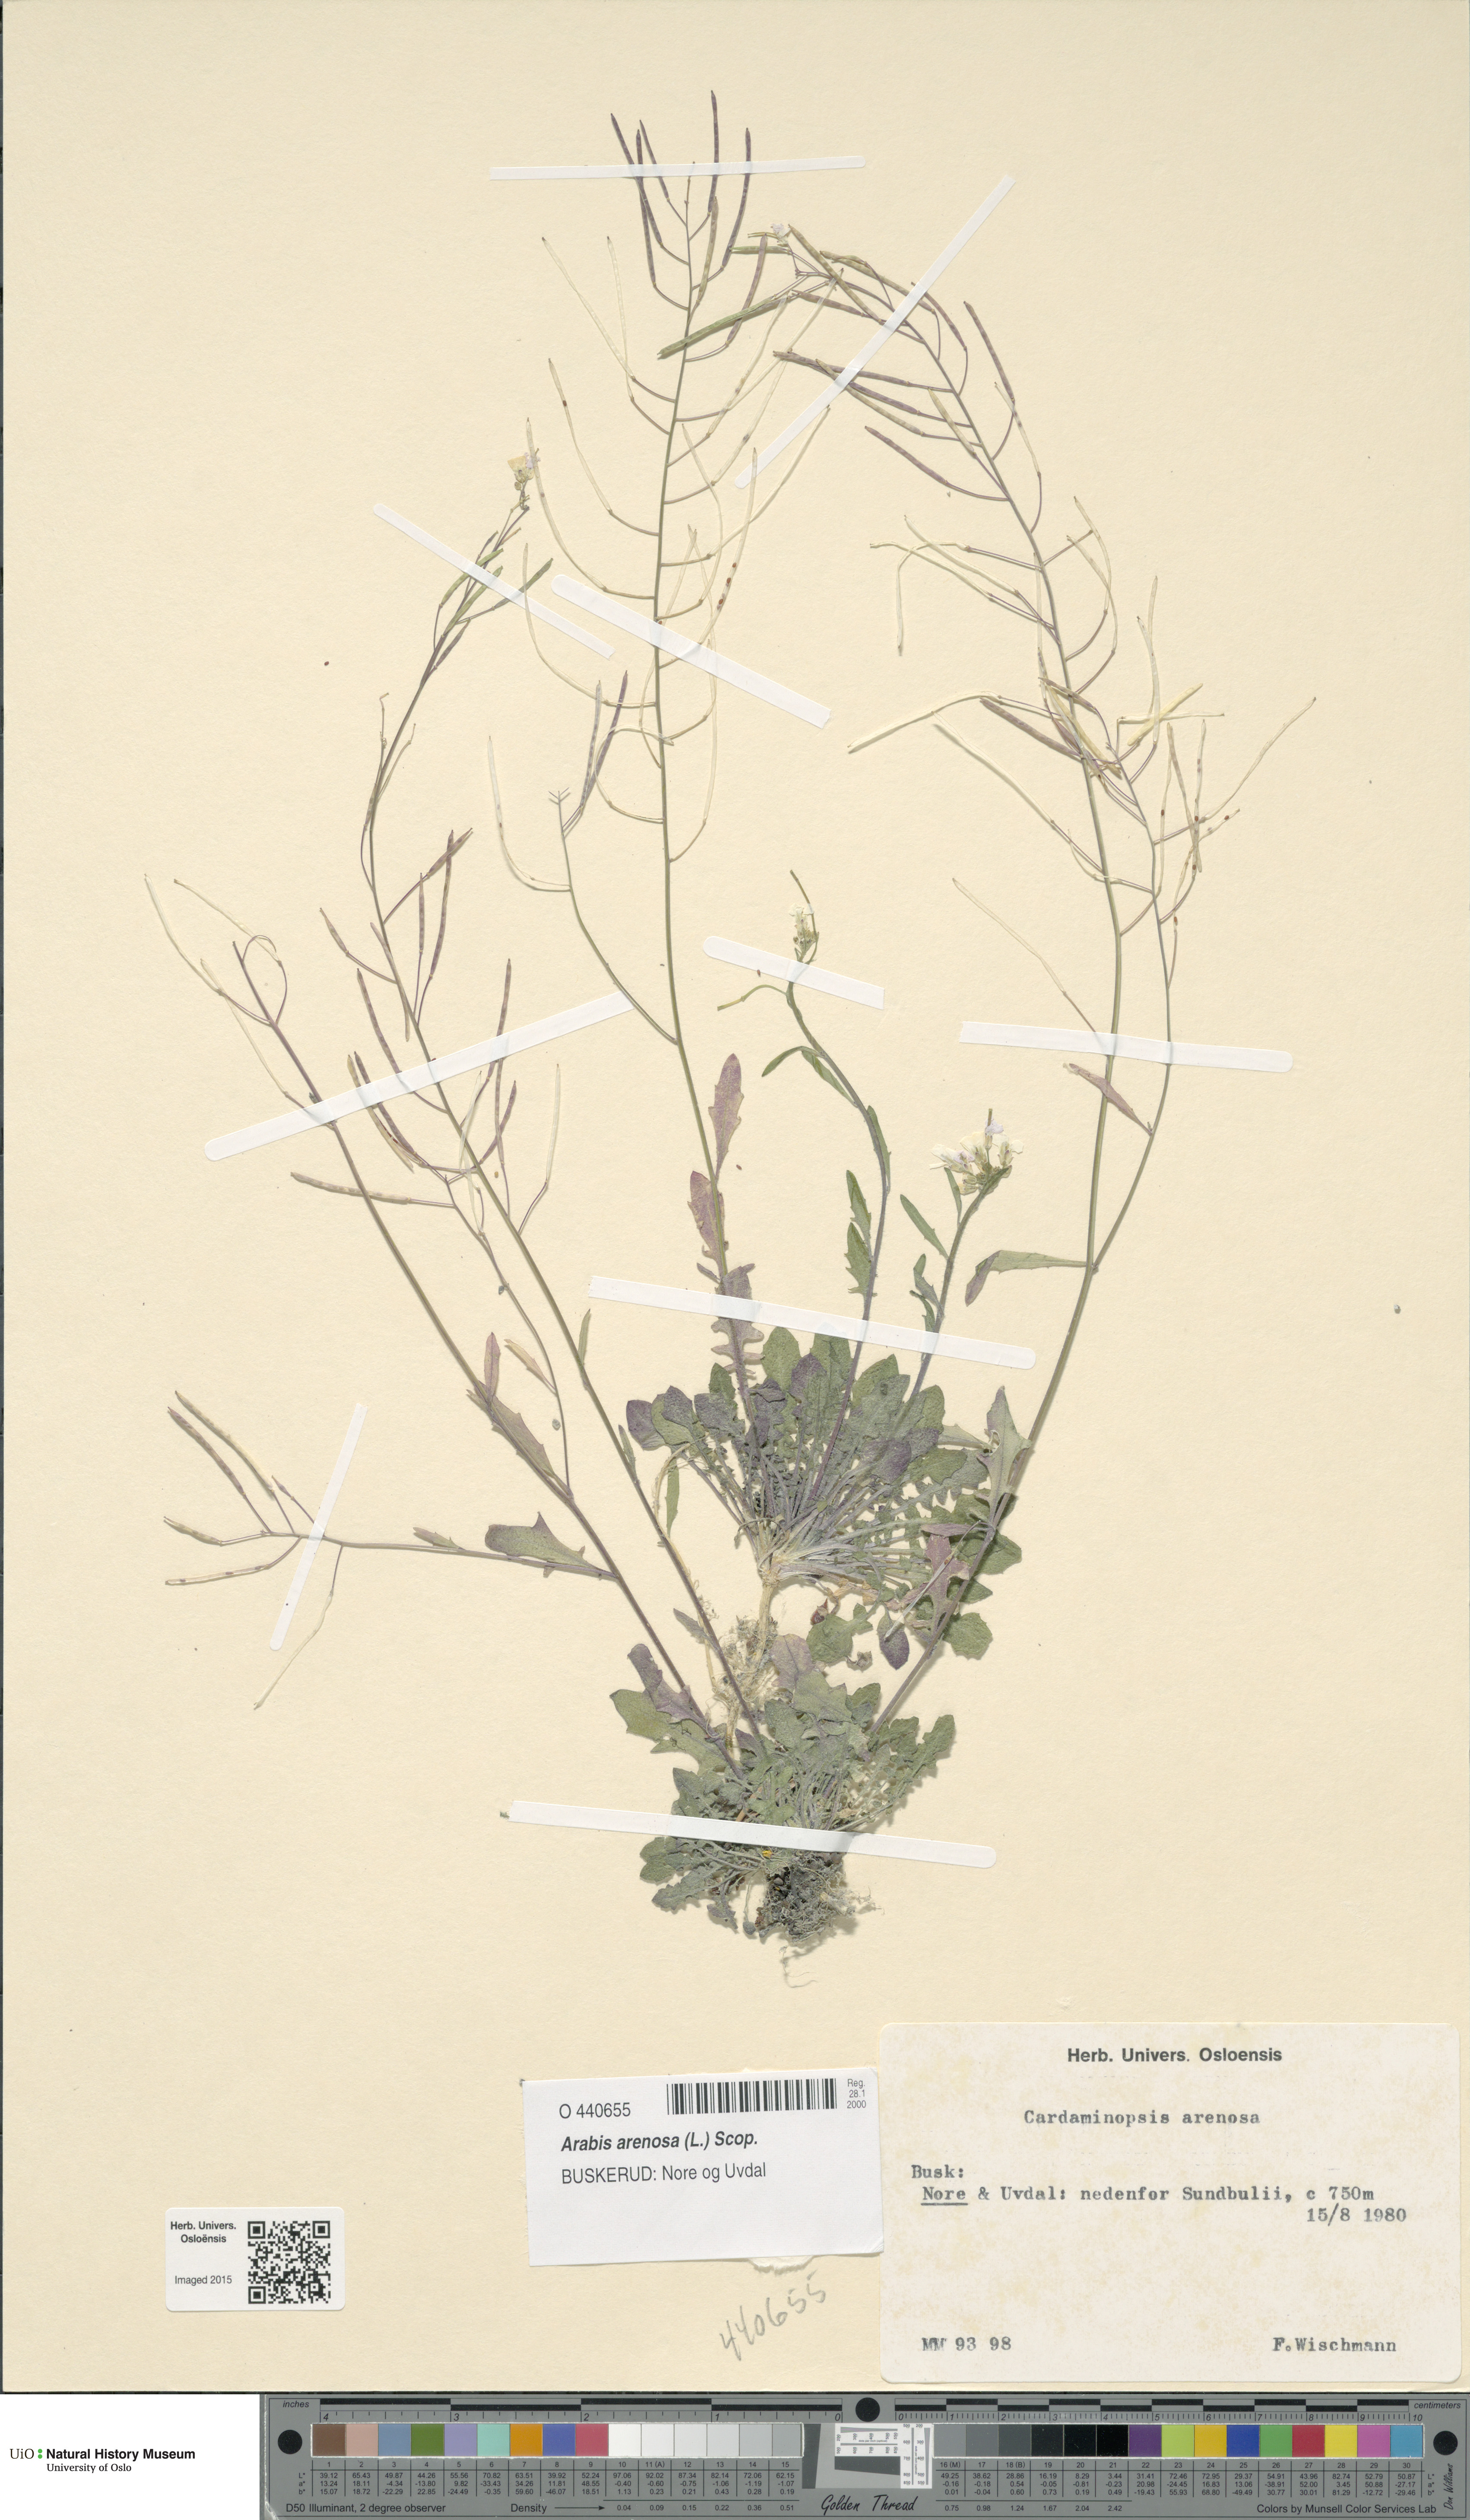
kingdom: Plantae
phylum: Tracheophyta
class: Magnoliopsida
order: Brassicales
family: Brassicaceae
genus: Arabidopsis
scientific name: Arabidopsis arenosa
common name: Sand rock-cress
